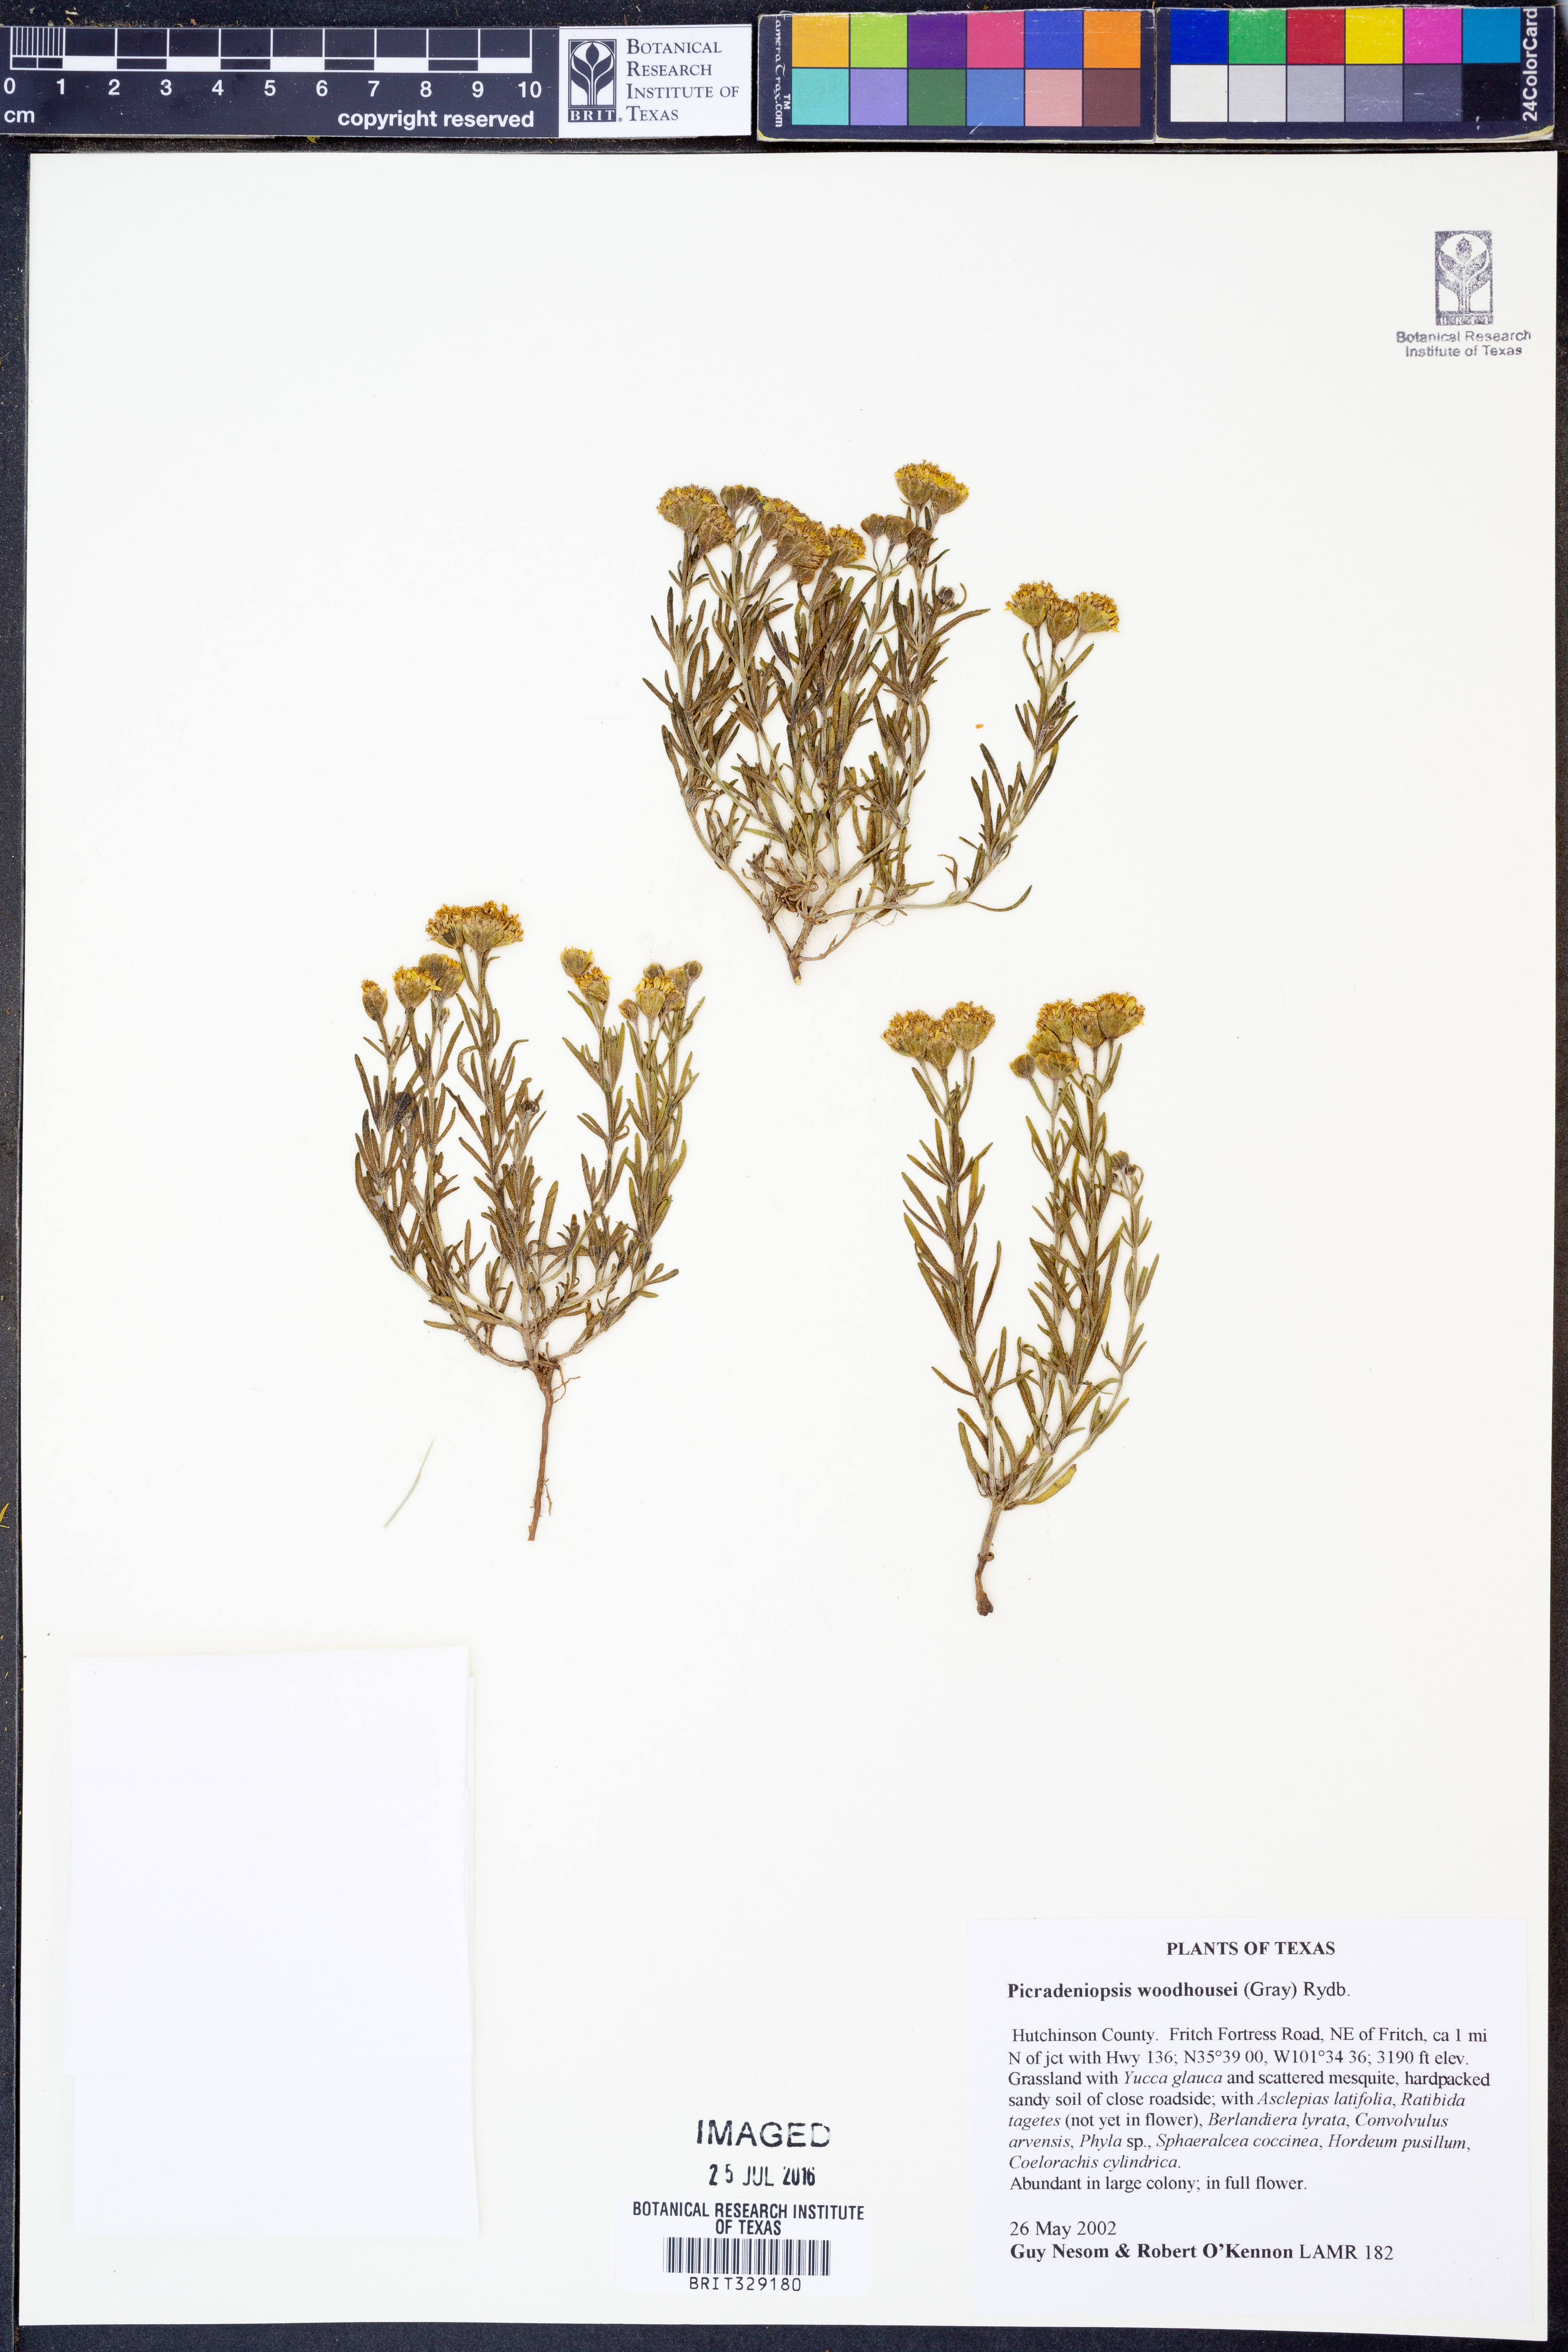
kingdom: Plantae
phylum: Tracheophyta
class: Magnoliopsida
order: Asterales
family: Asteraceae
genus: Picradeniopsis
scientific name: Picradeniopsis woodhousei
